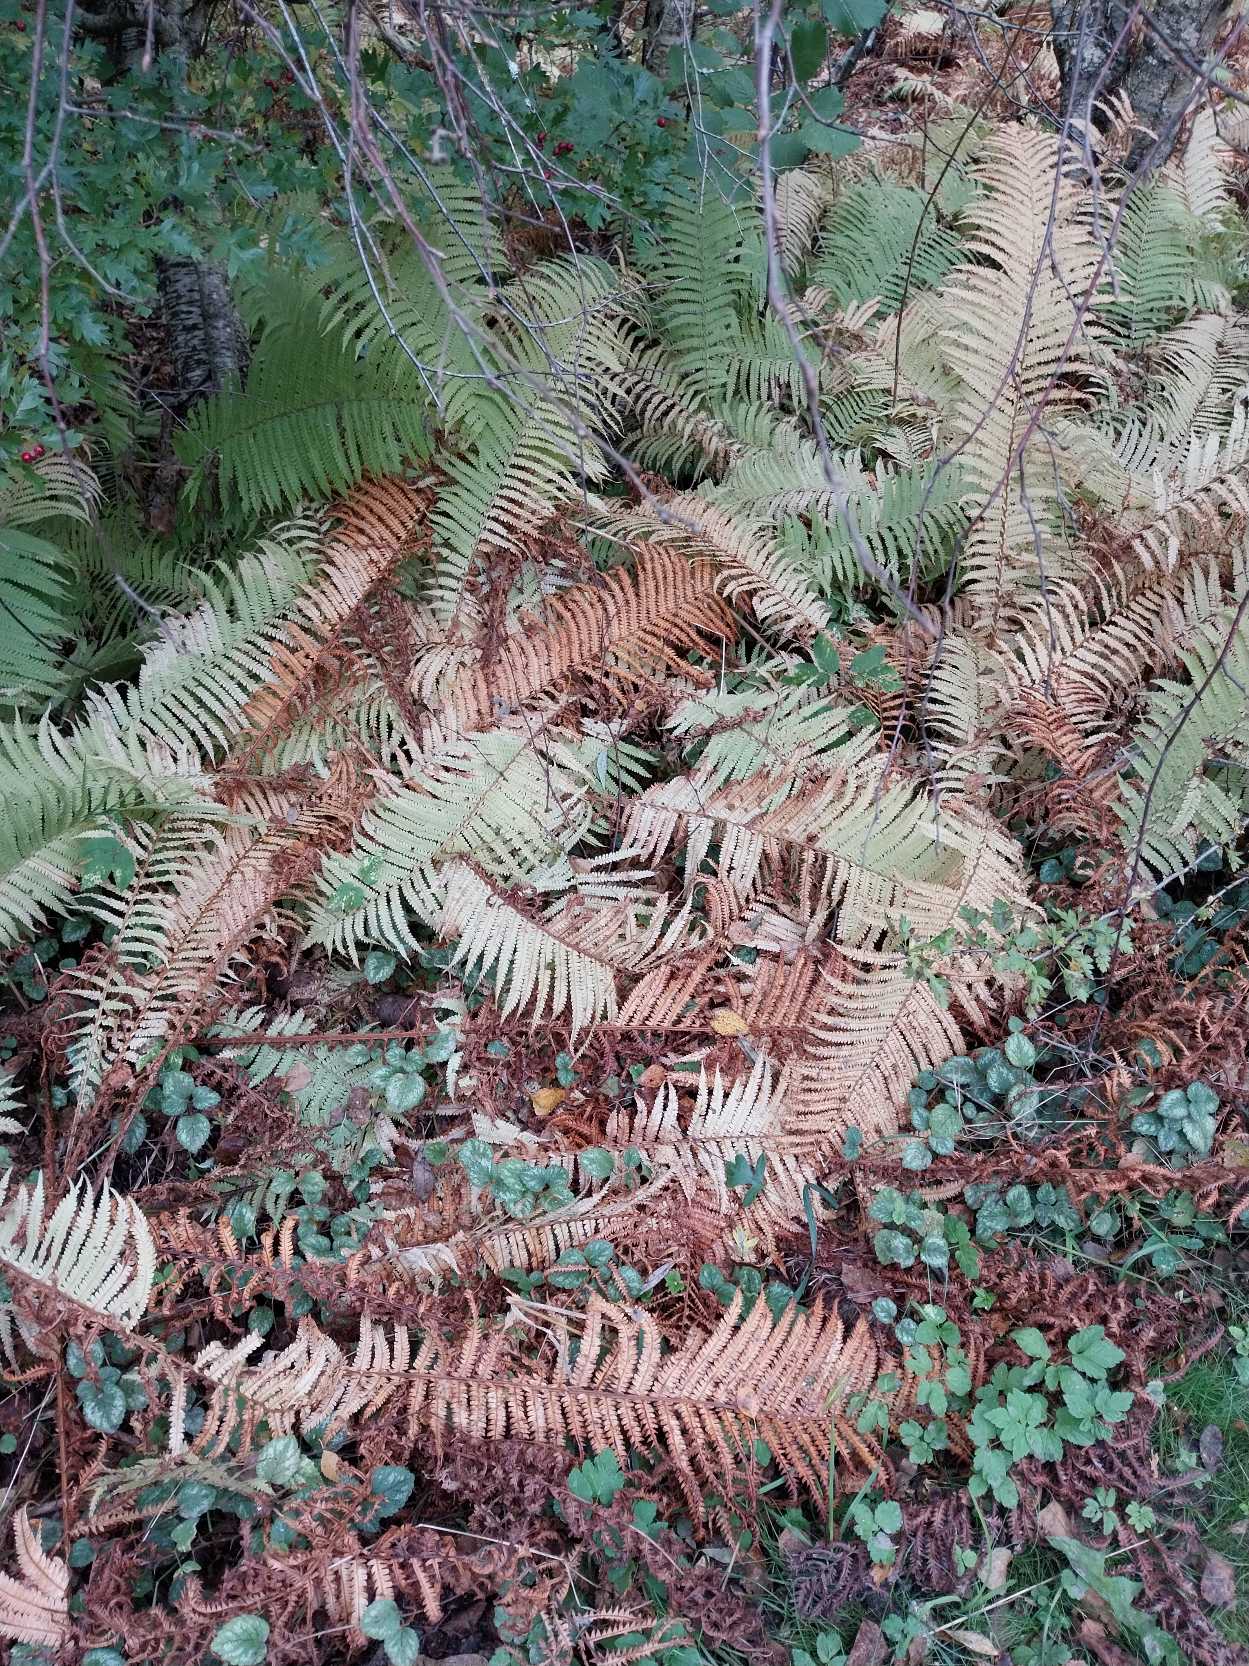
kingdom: Plantae
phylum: Tracheophyta
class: Polypodiopsida
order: Polypodiales
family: Onocleaceae
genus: Matteuccia
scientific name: Matteuccia struthiopteris
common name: Strudsvinge
